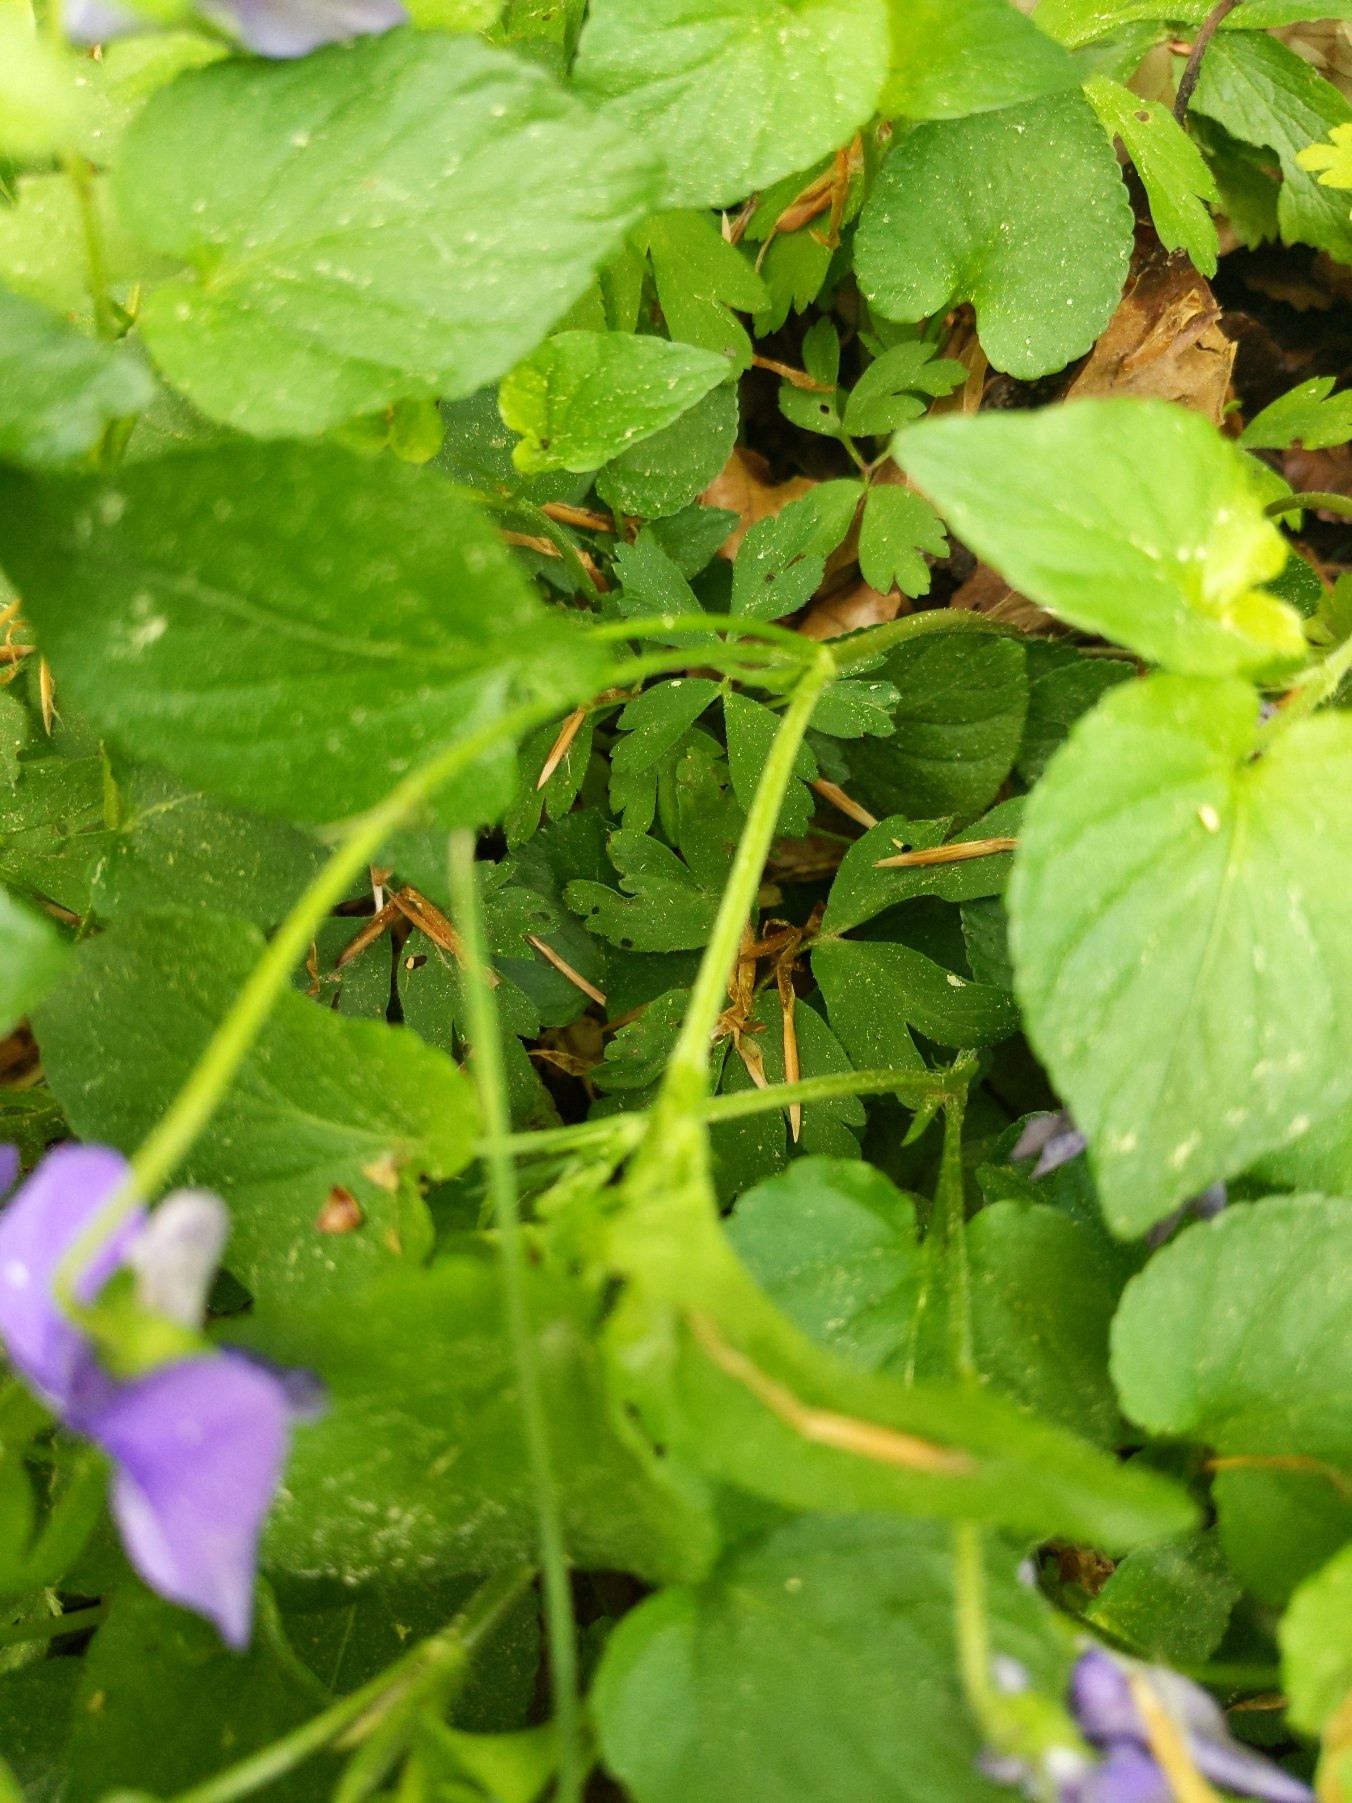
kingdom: Plantae
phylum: Tracheophyta
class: Magnoliopsida
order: Malpighiales
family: Violaceae
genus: Viola
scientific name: Viola riviniana
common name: Krat-viol
